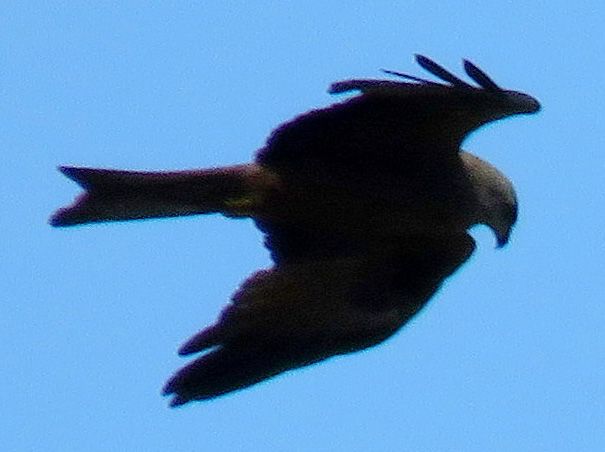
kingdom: Animalia
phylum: Chordata
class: Aves
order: Accipitriformes
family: Accipitridae
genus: Milvus
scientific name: Milvus migrans
